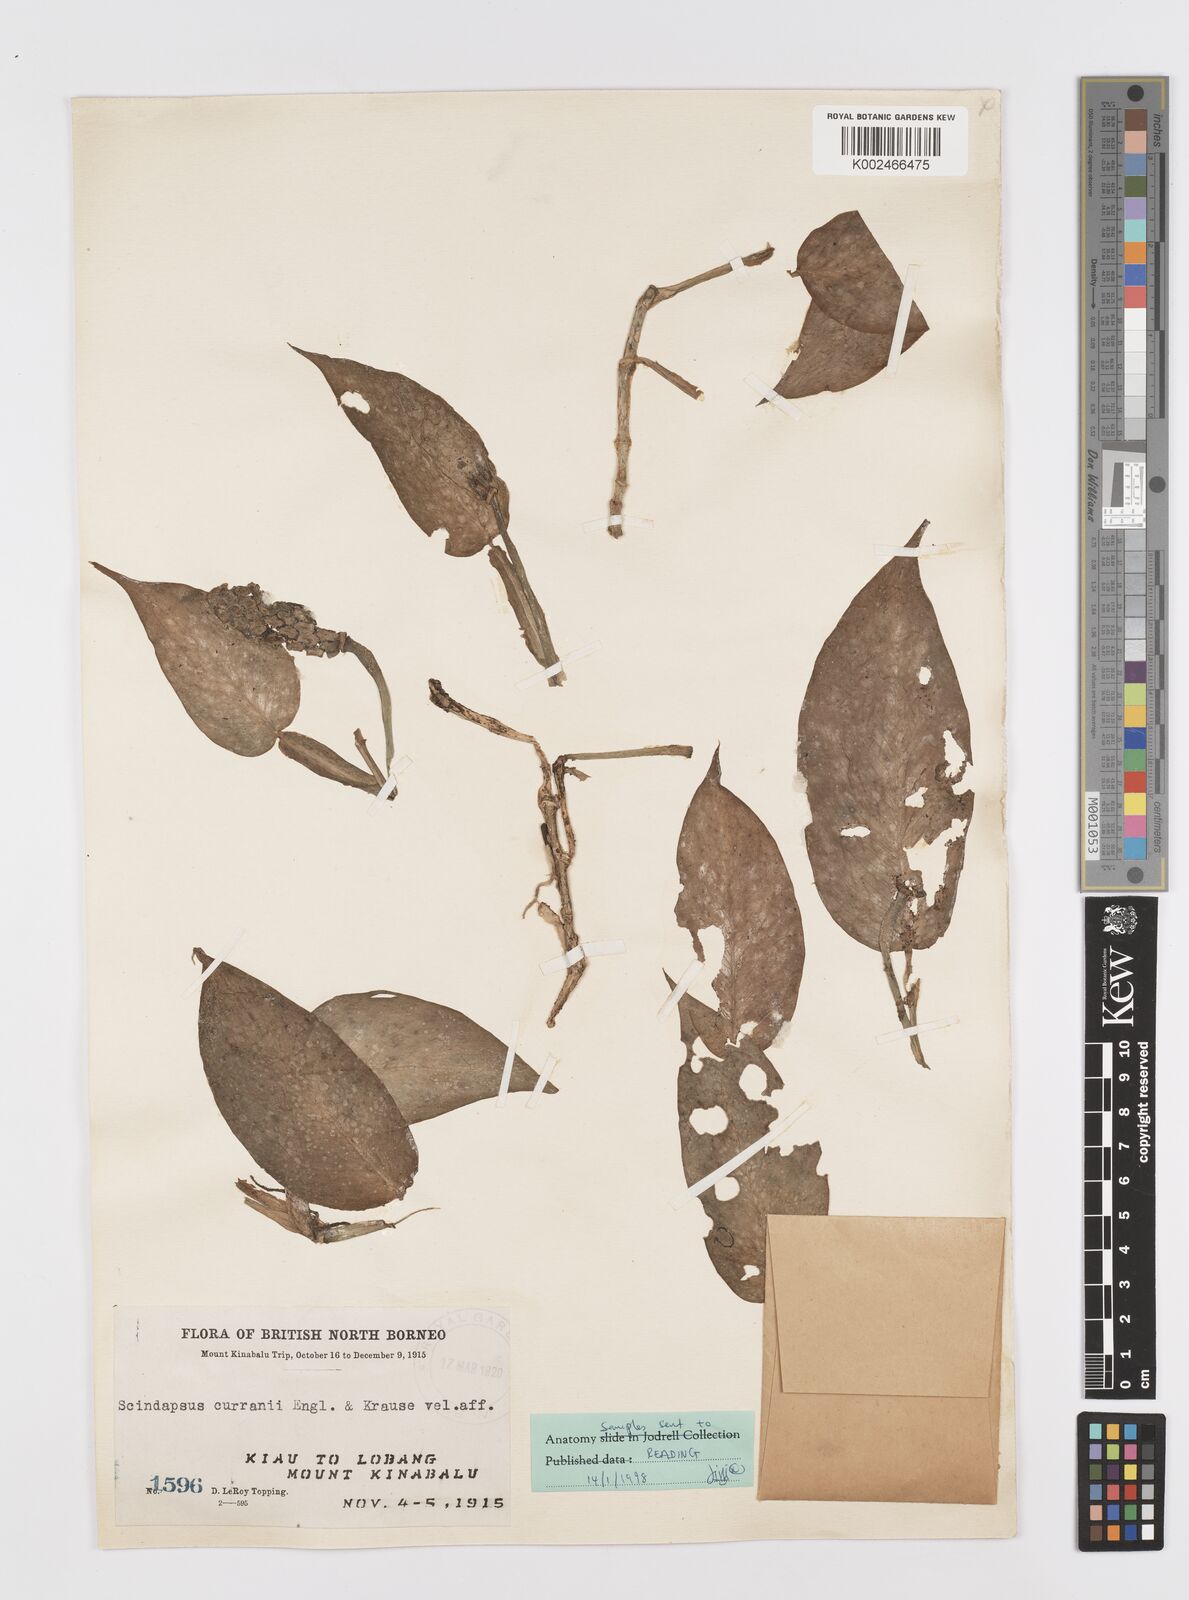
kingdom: Plantae
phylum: Tracheophyta
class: Liliopsida
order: Alismatales
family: Araceae
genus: Scindapsus
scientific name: Scindapsus curranii
